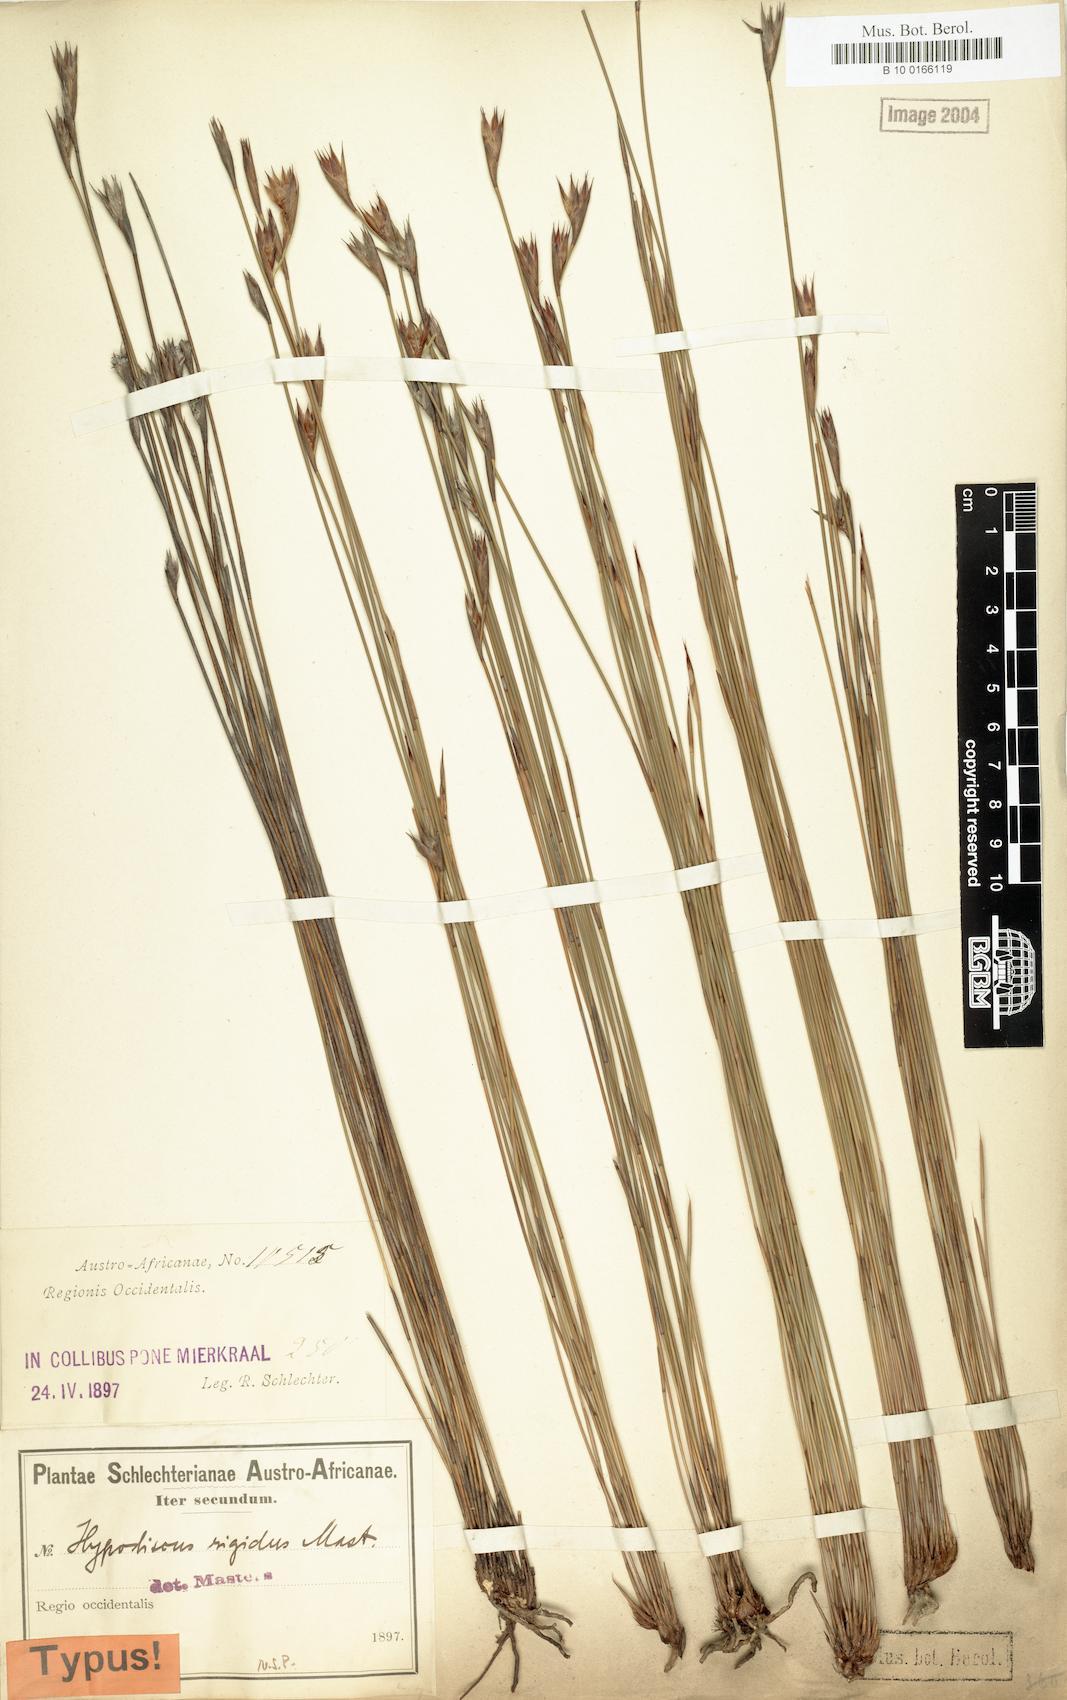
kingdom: Plantae
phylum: Tracheophyta
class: Liliopsida
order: Poales
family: Restionaceae
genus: Hypodiscus
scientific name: Hypodiscus striatus
